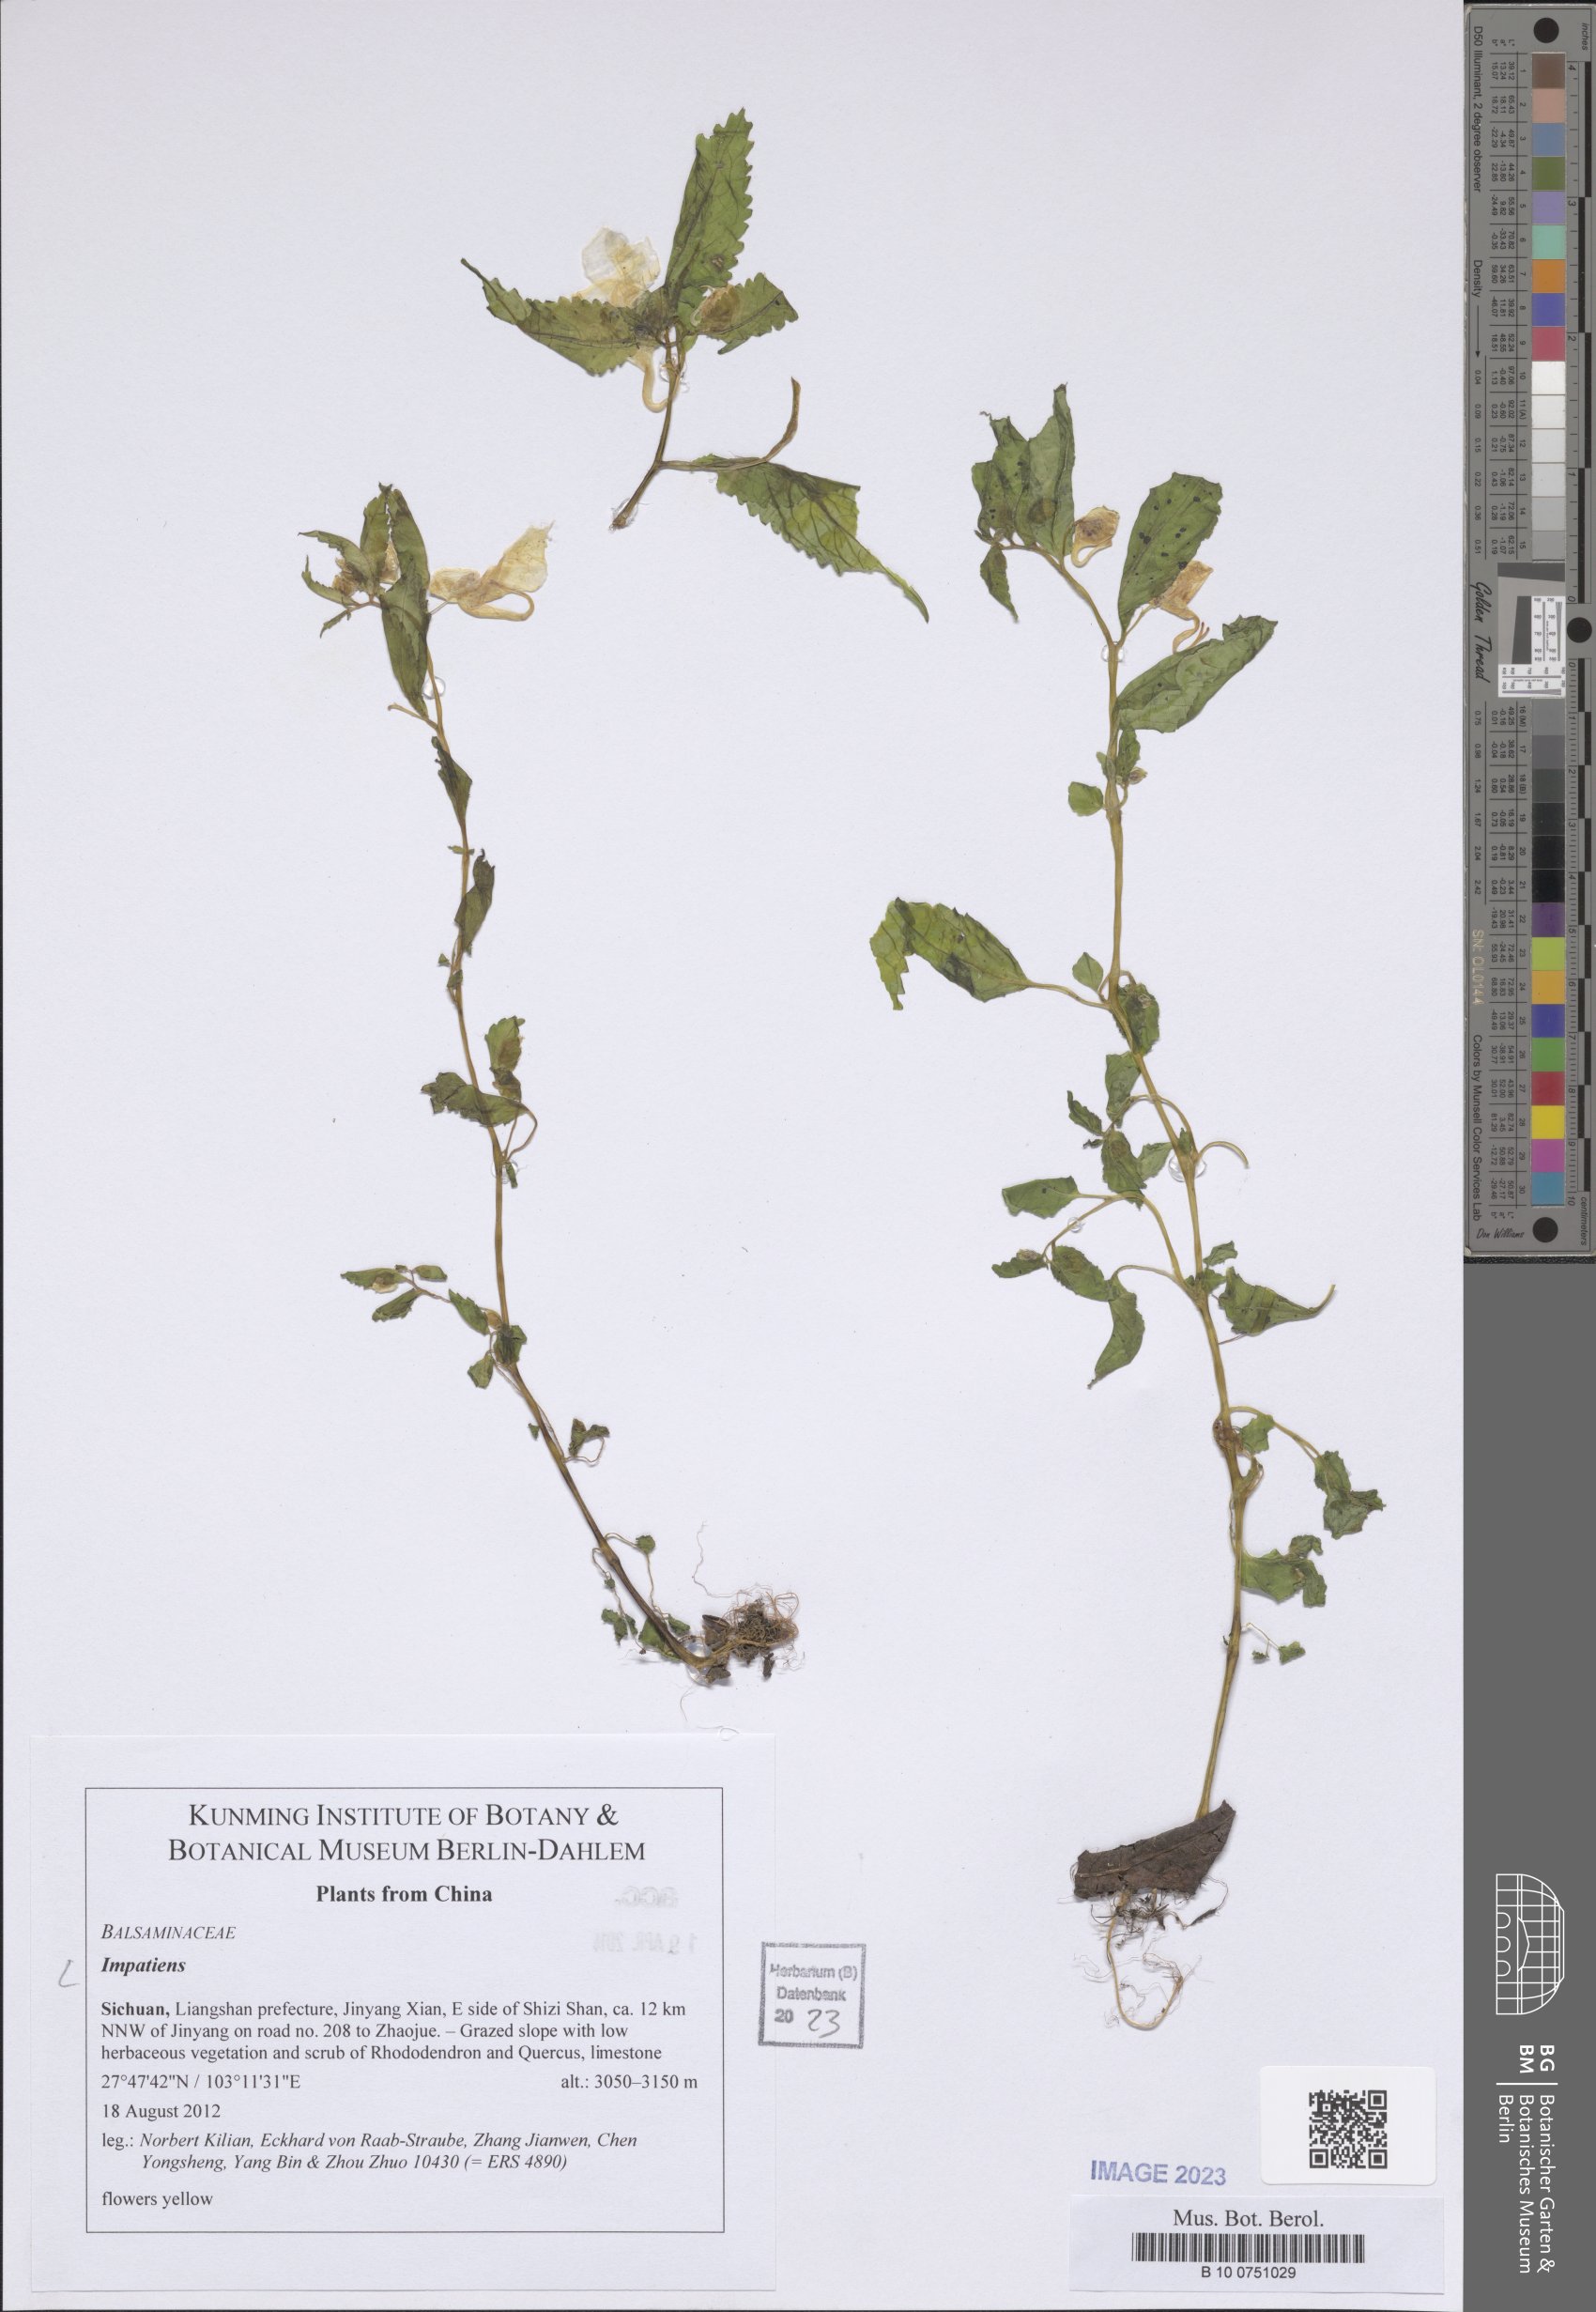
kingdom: Plantae
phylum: Tracheophyta
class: Magnoliopsida
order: Ericales
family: Balsaminaceae
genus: Impatiens
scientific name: Impatiens
